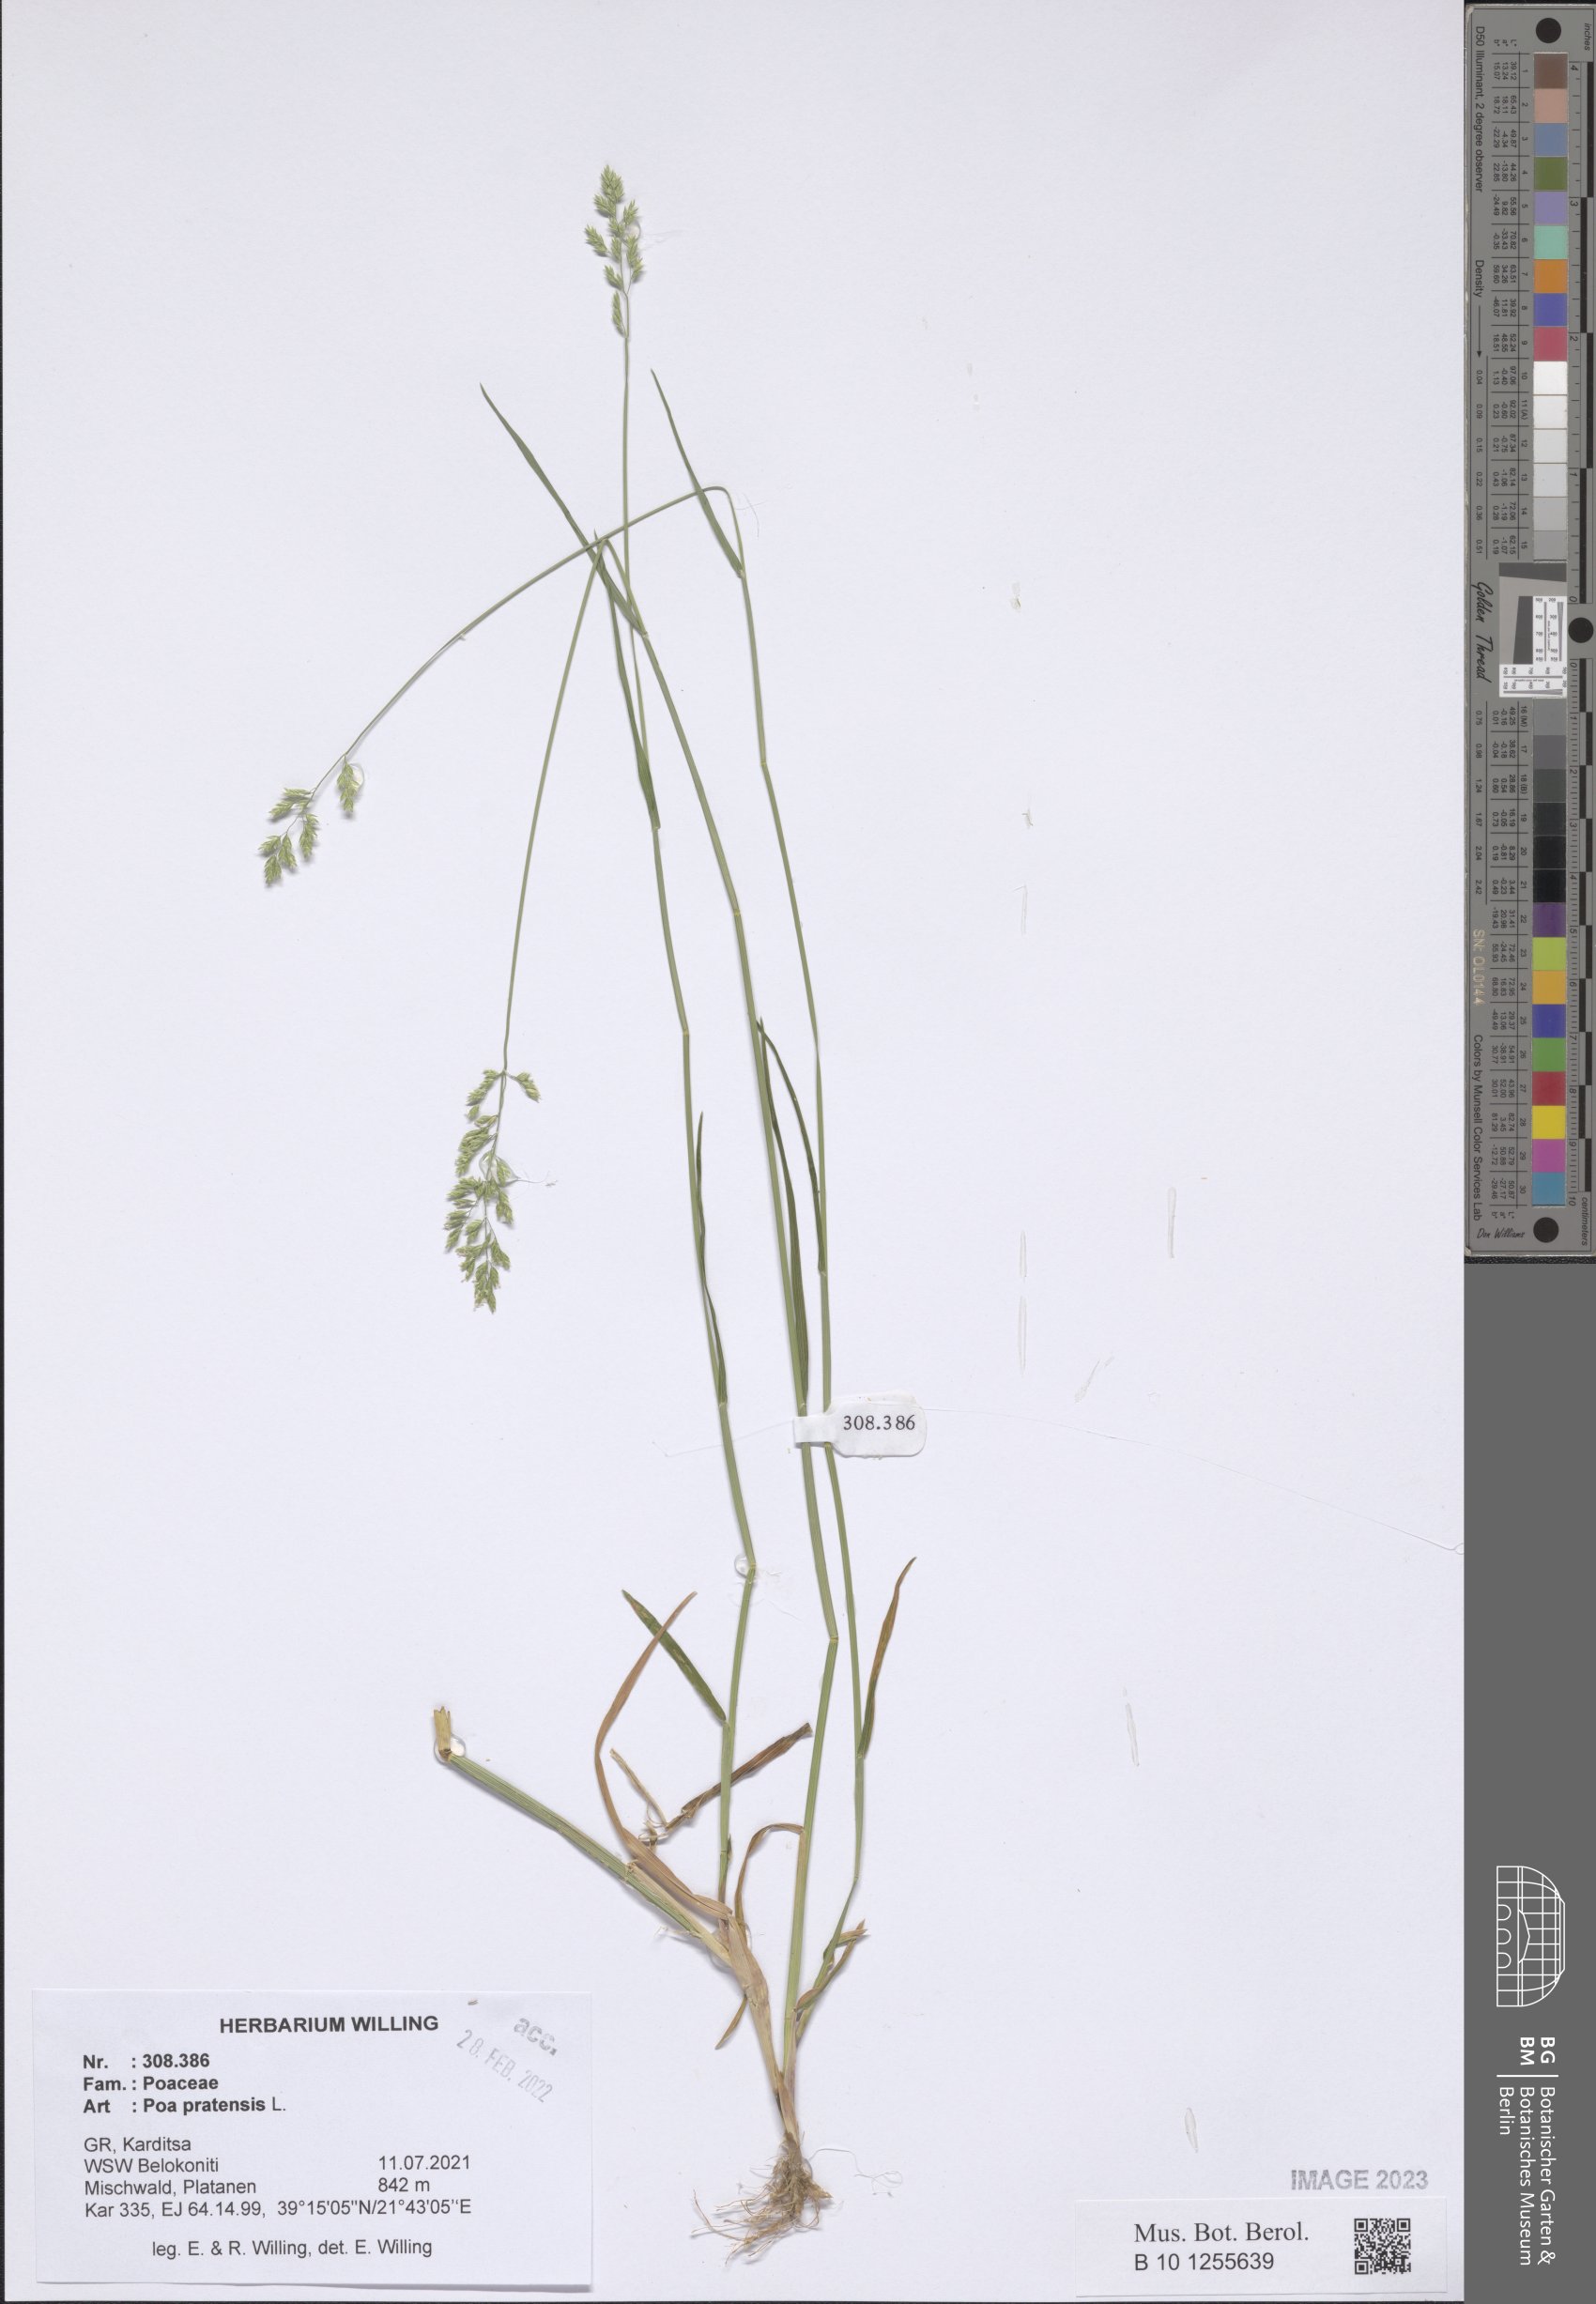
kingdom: Plantae
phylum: Tracheophyta
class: Liliopsida
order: Poales
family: Poaceae
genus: Poa
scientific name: Poa pratensis
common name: Kentucky bluegrass
